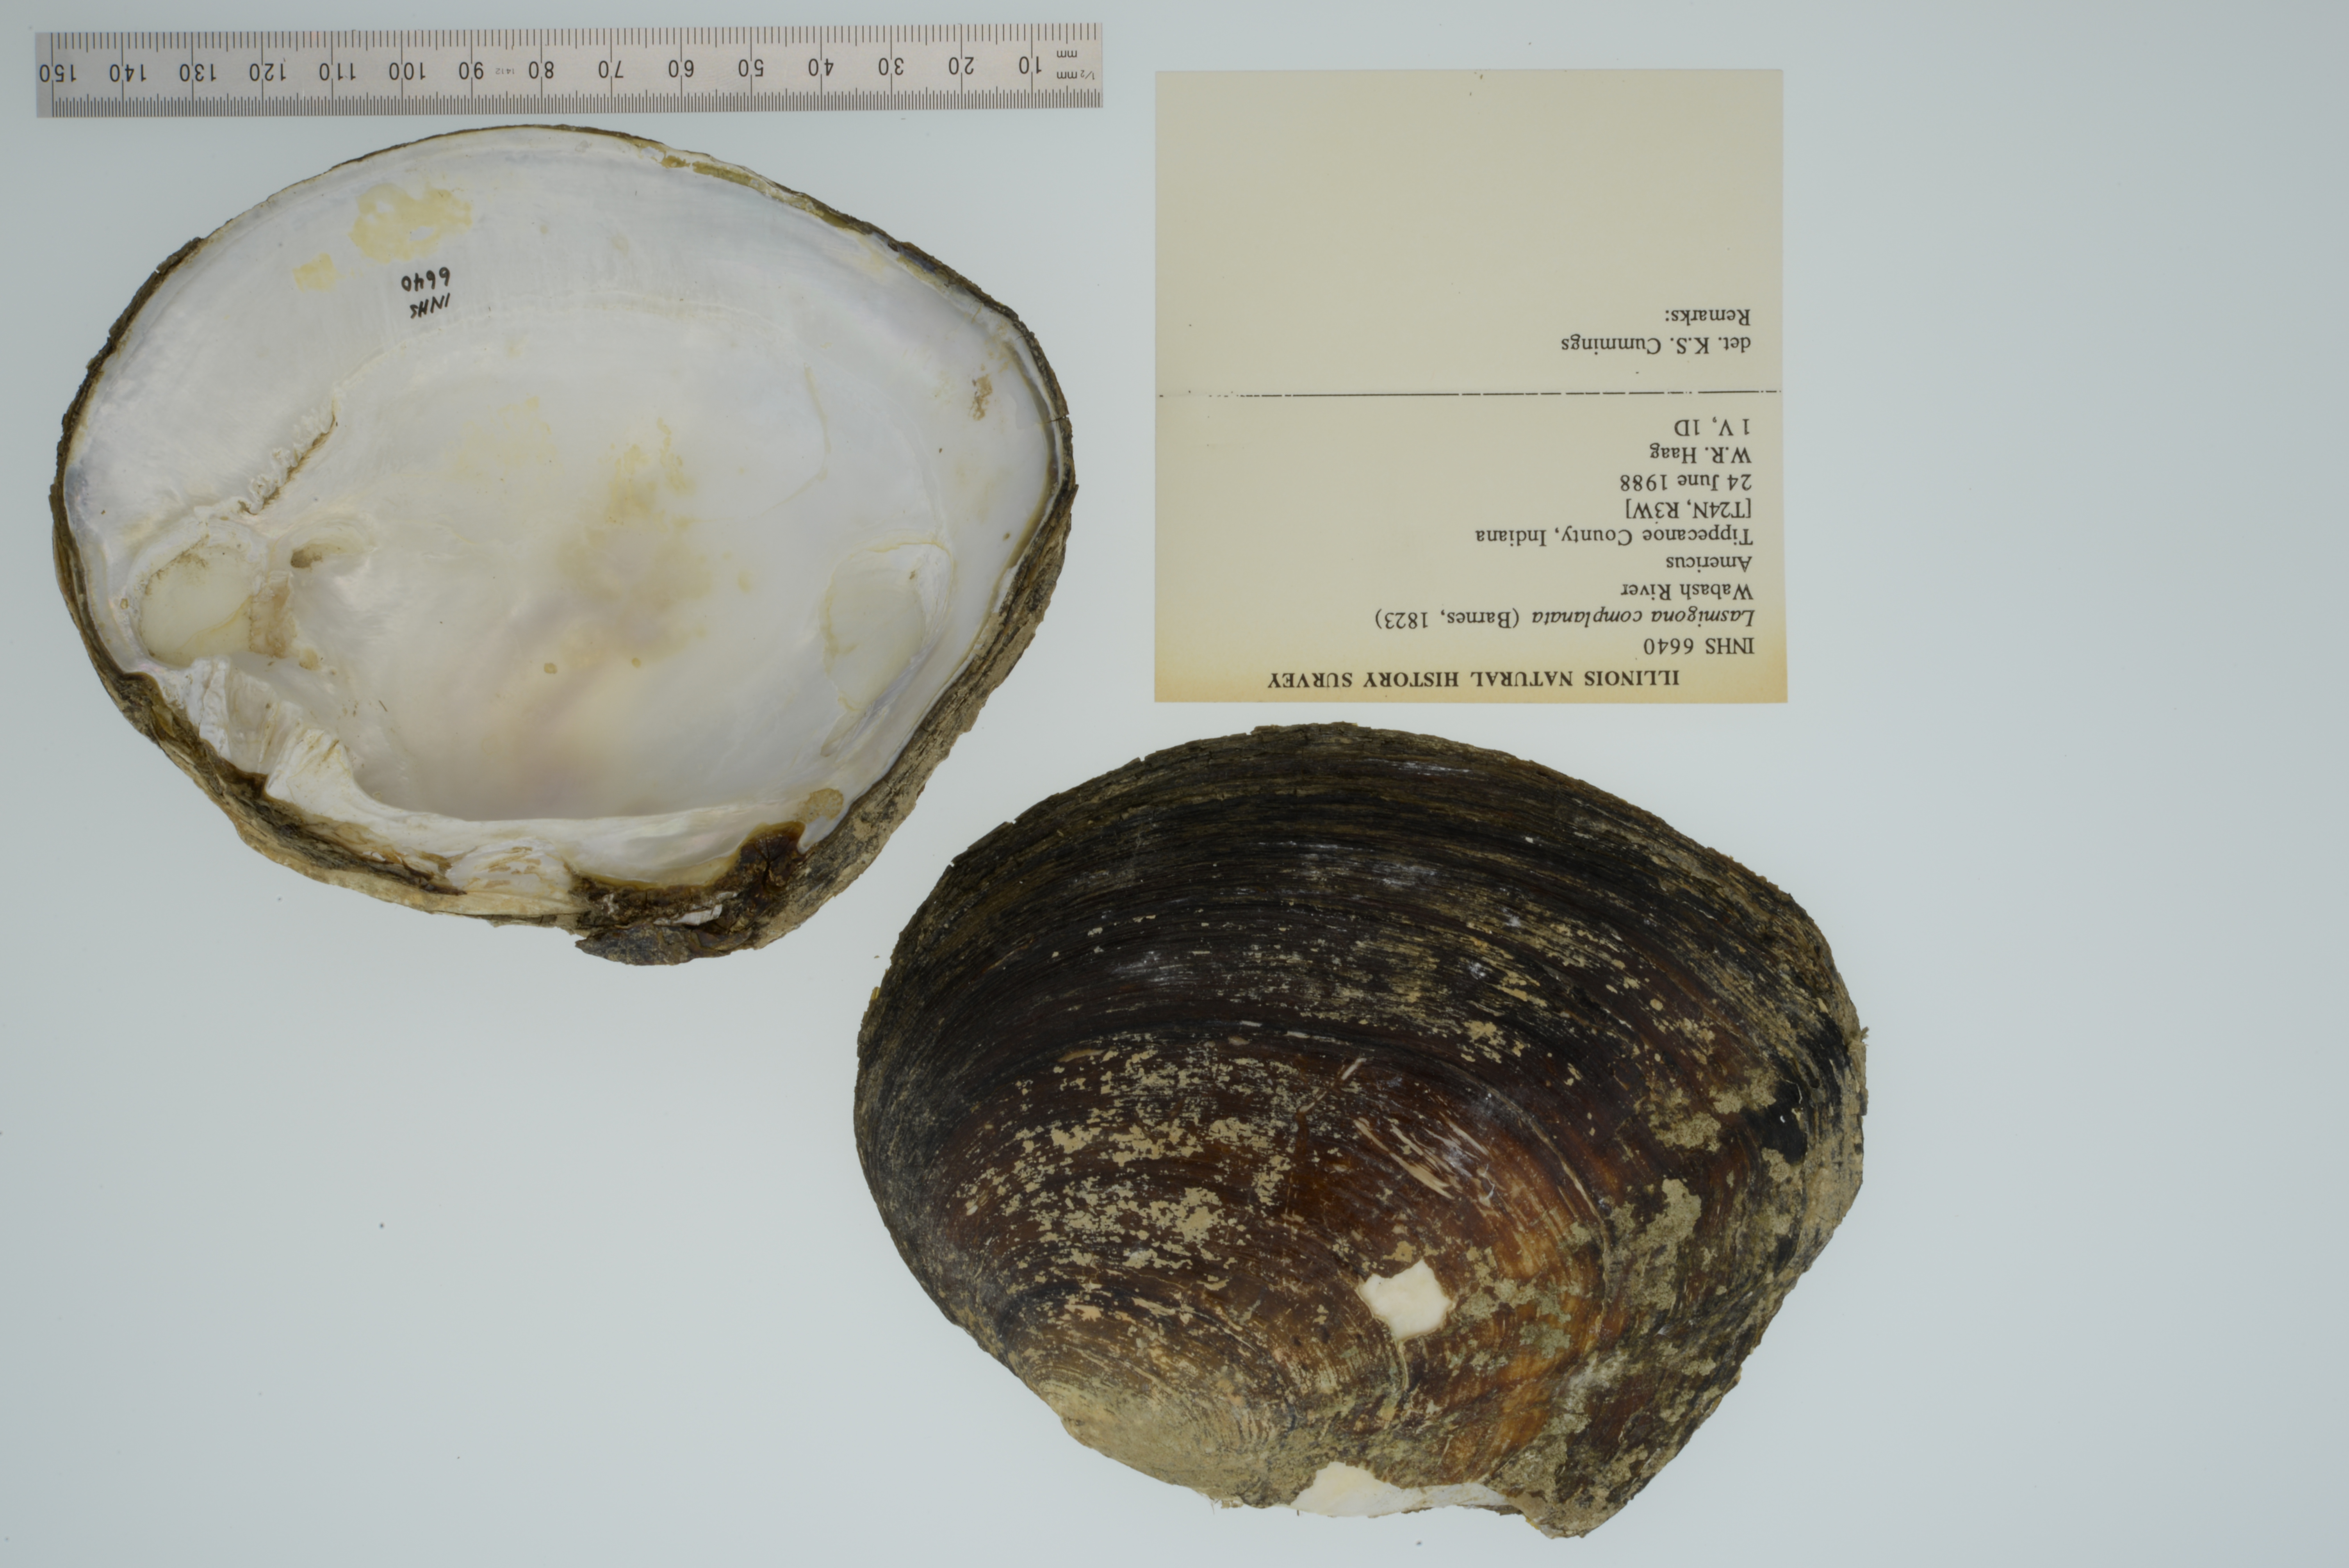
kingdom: Animalia
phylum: Mollusca
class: Bivalvia
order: Unionida
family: Unionidae
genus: Lasmigona
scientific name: Lasmigona complanata
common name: White heelsplitter
